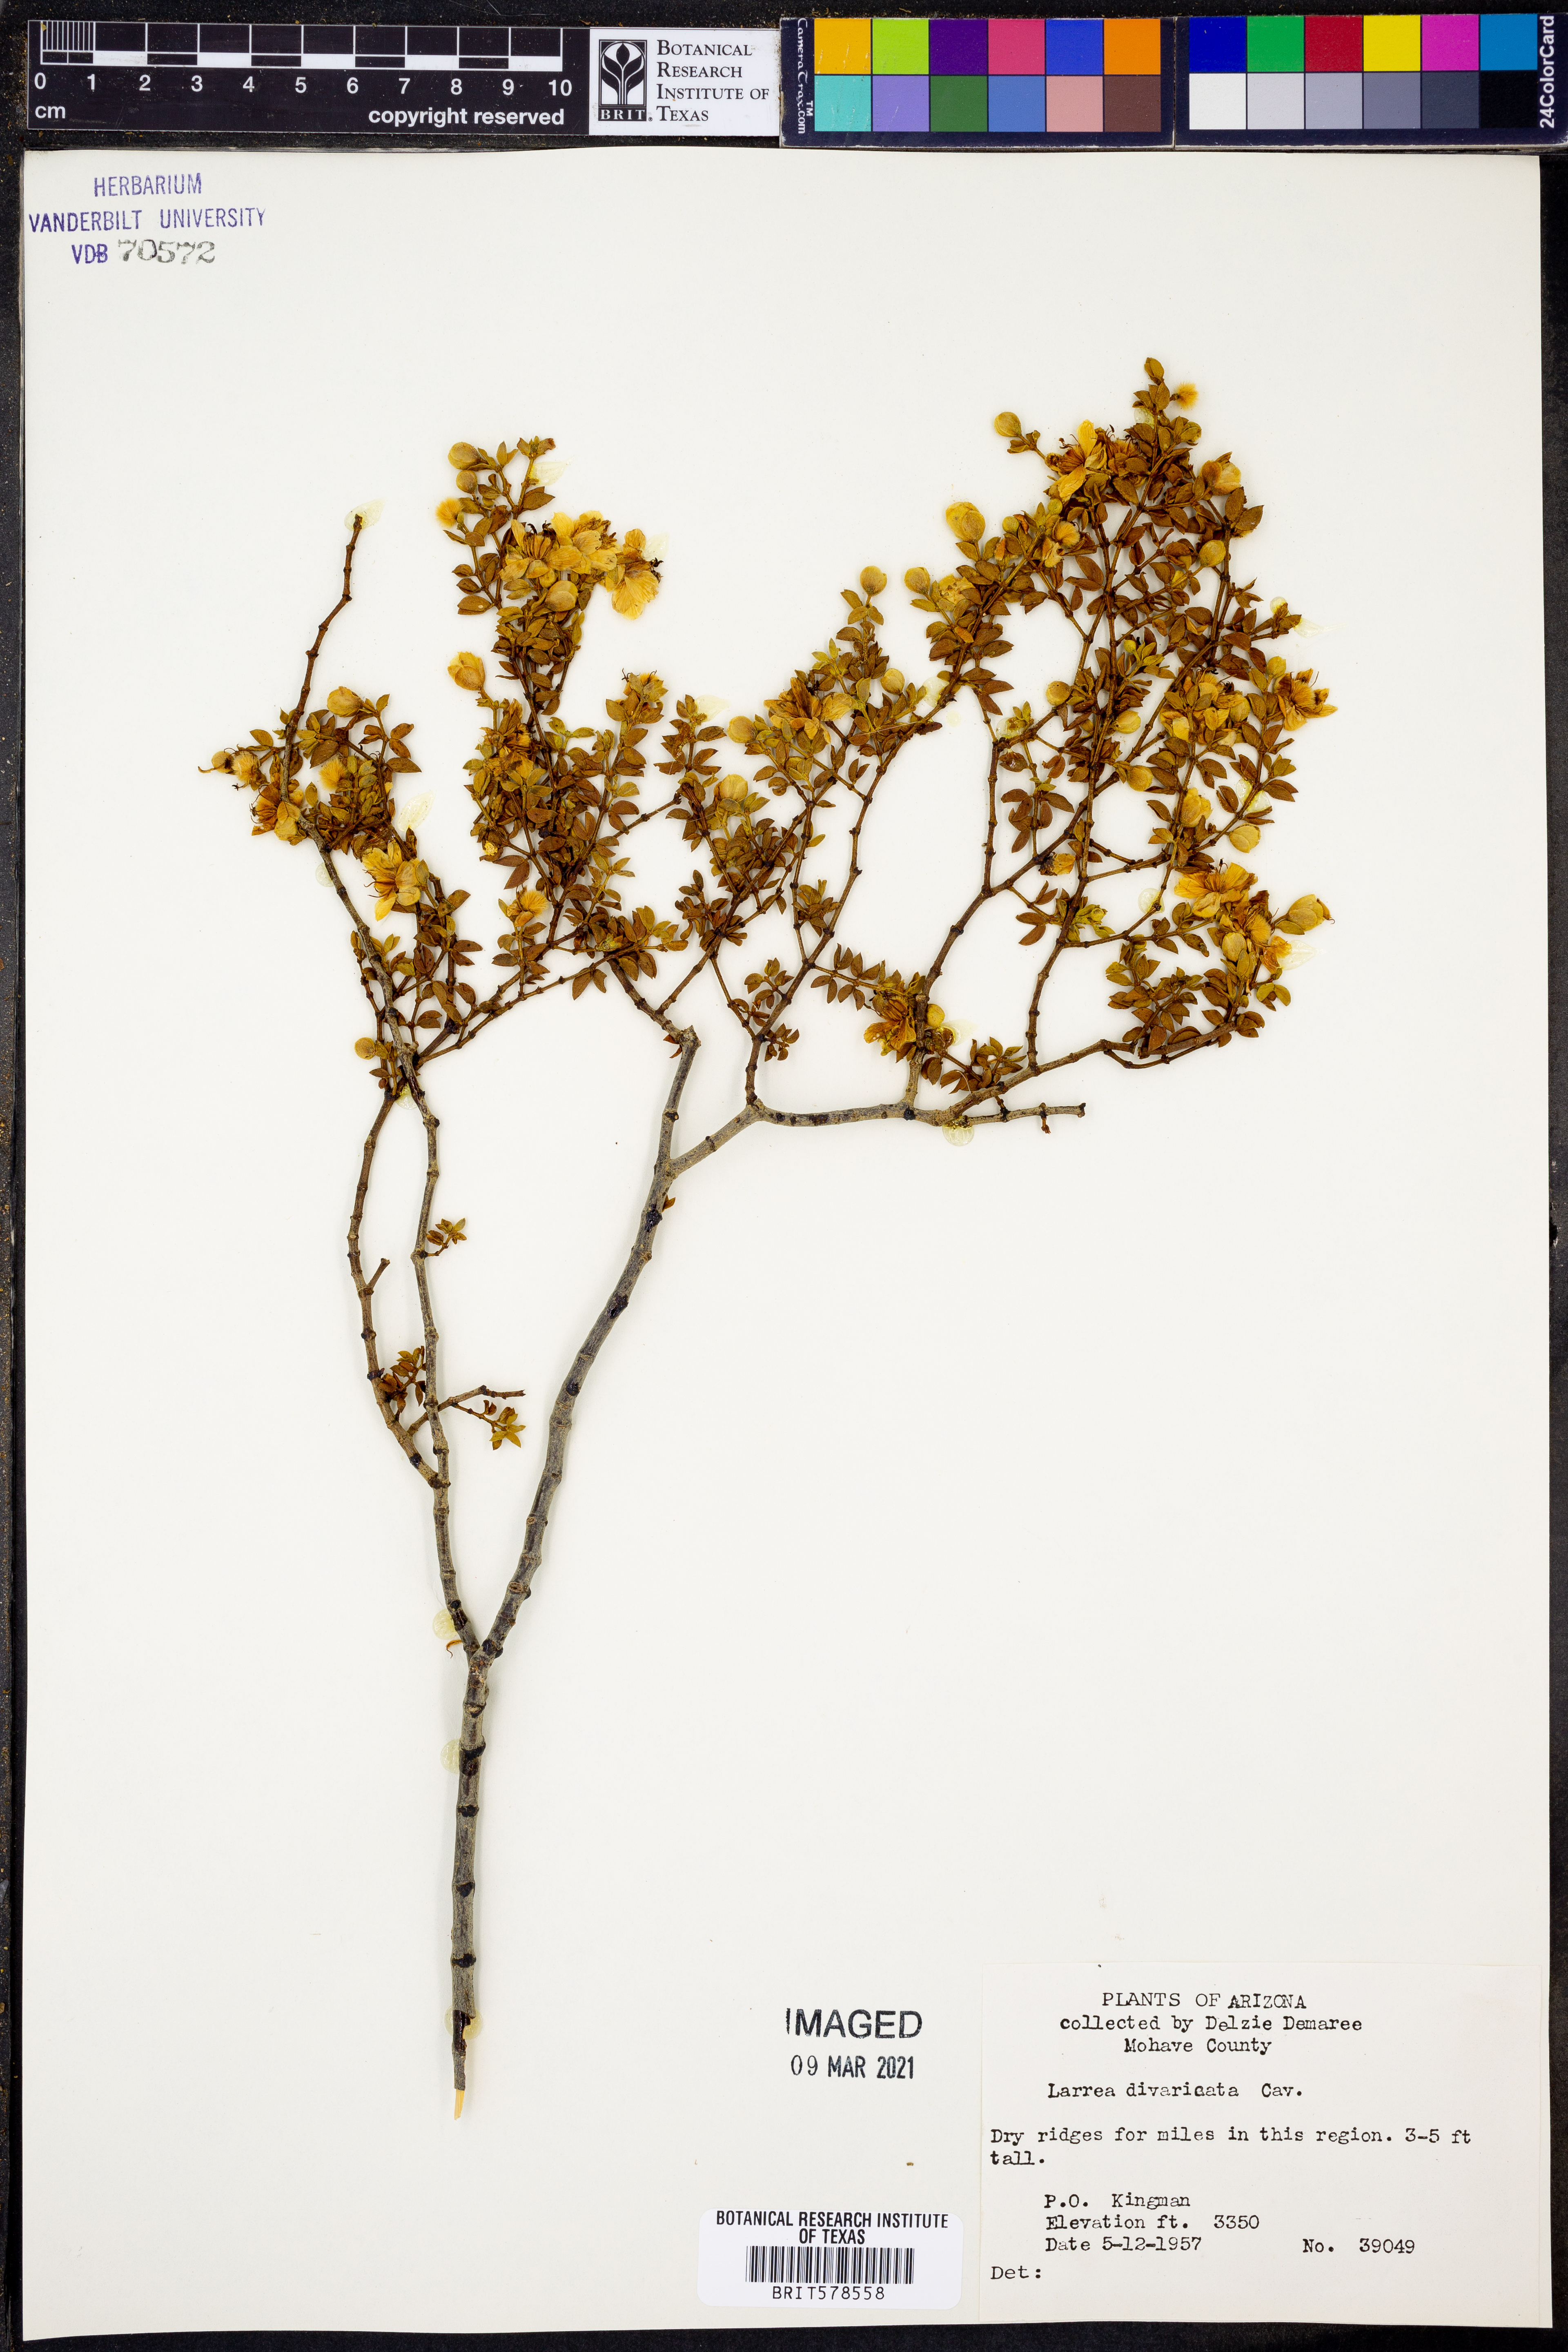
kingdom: Plantae
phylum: Tracheophyta
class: Magnoliopsida
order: Zygophyllales
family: Zygophyllaceae
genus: Larrea
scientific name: Larrea divaricata
